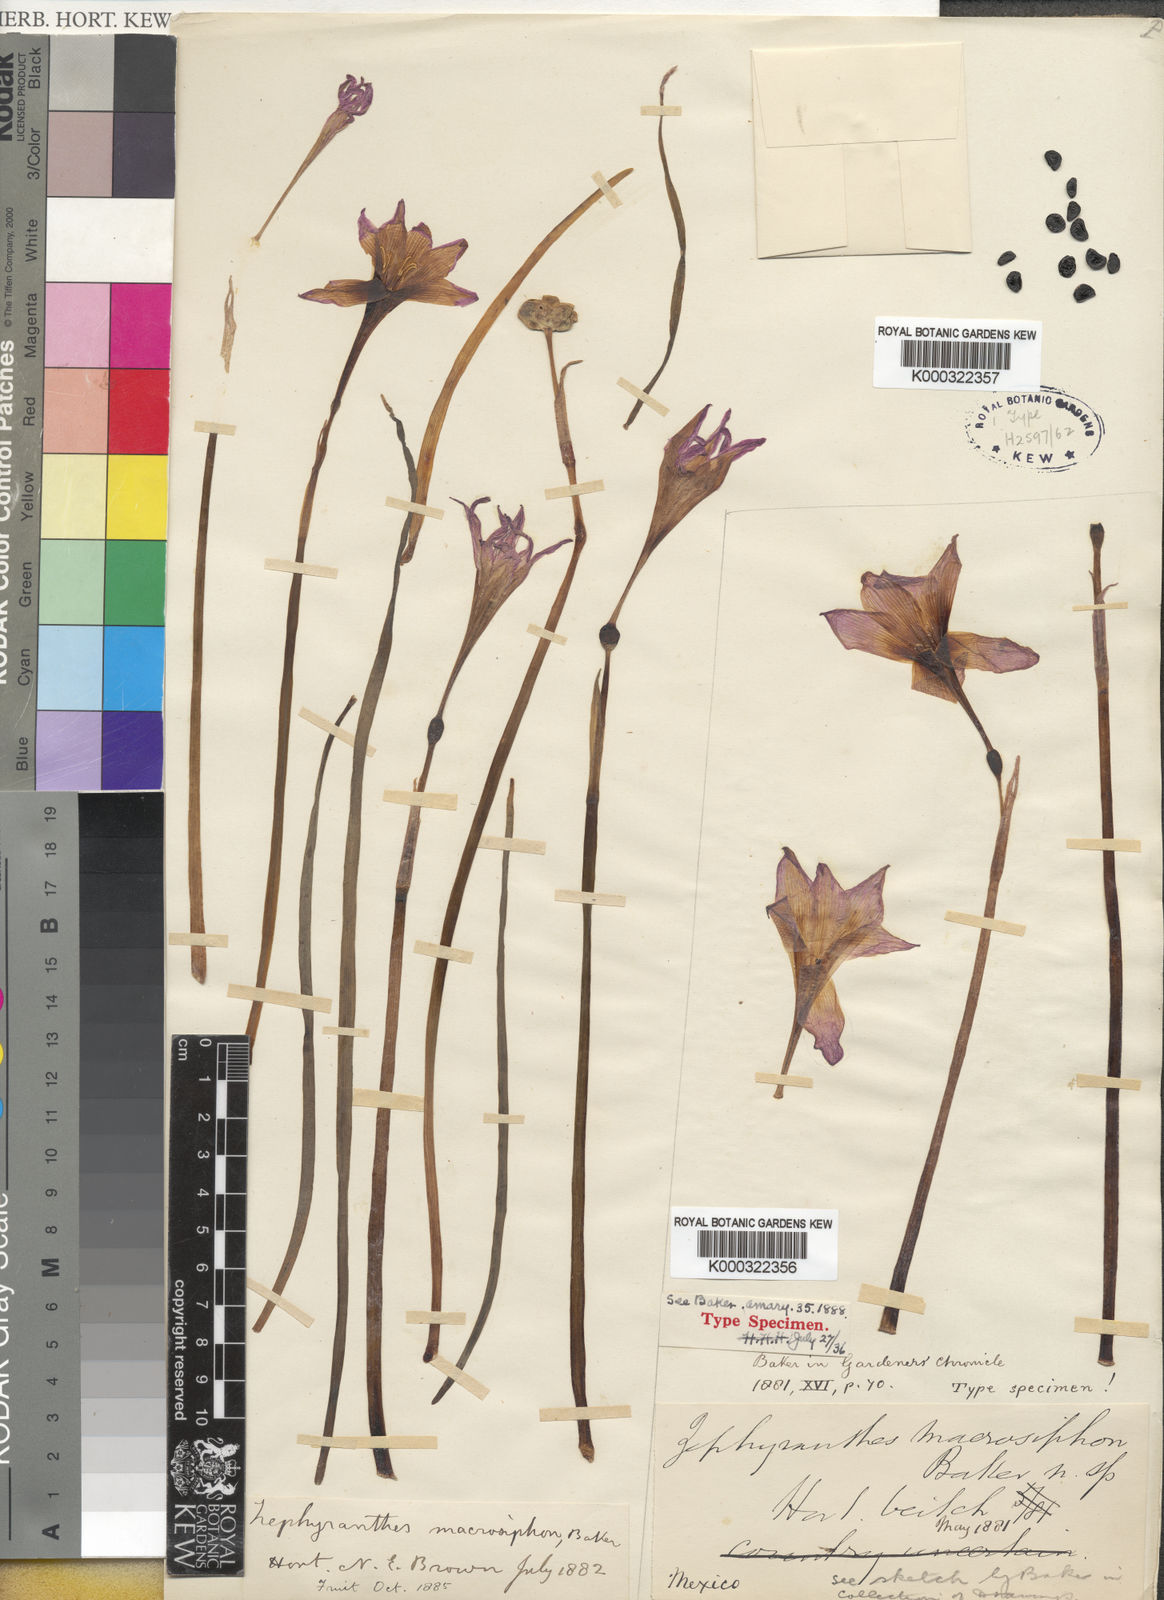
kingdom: Plantae
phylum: Tracheophyta
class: Liliopsida
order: Asparagales
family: Amaryllidaceae
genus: Zephyranthes
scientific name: Zephyranthes macrosiphon
